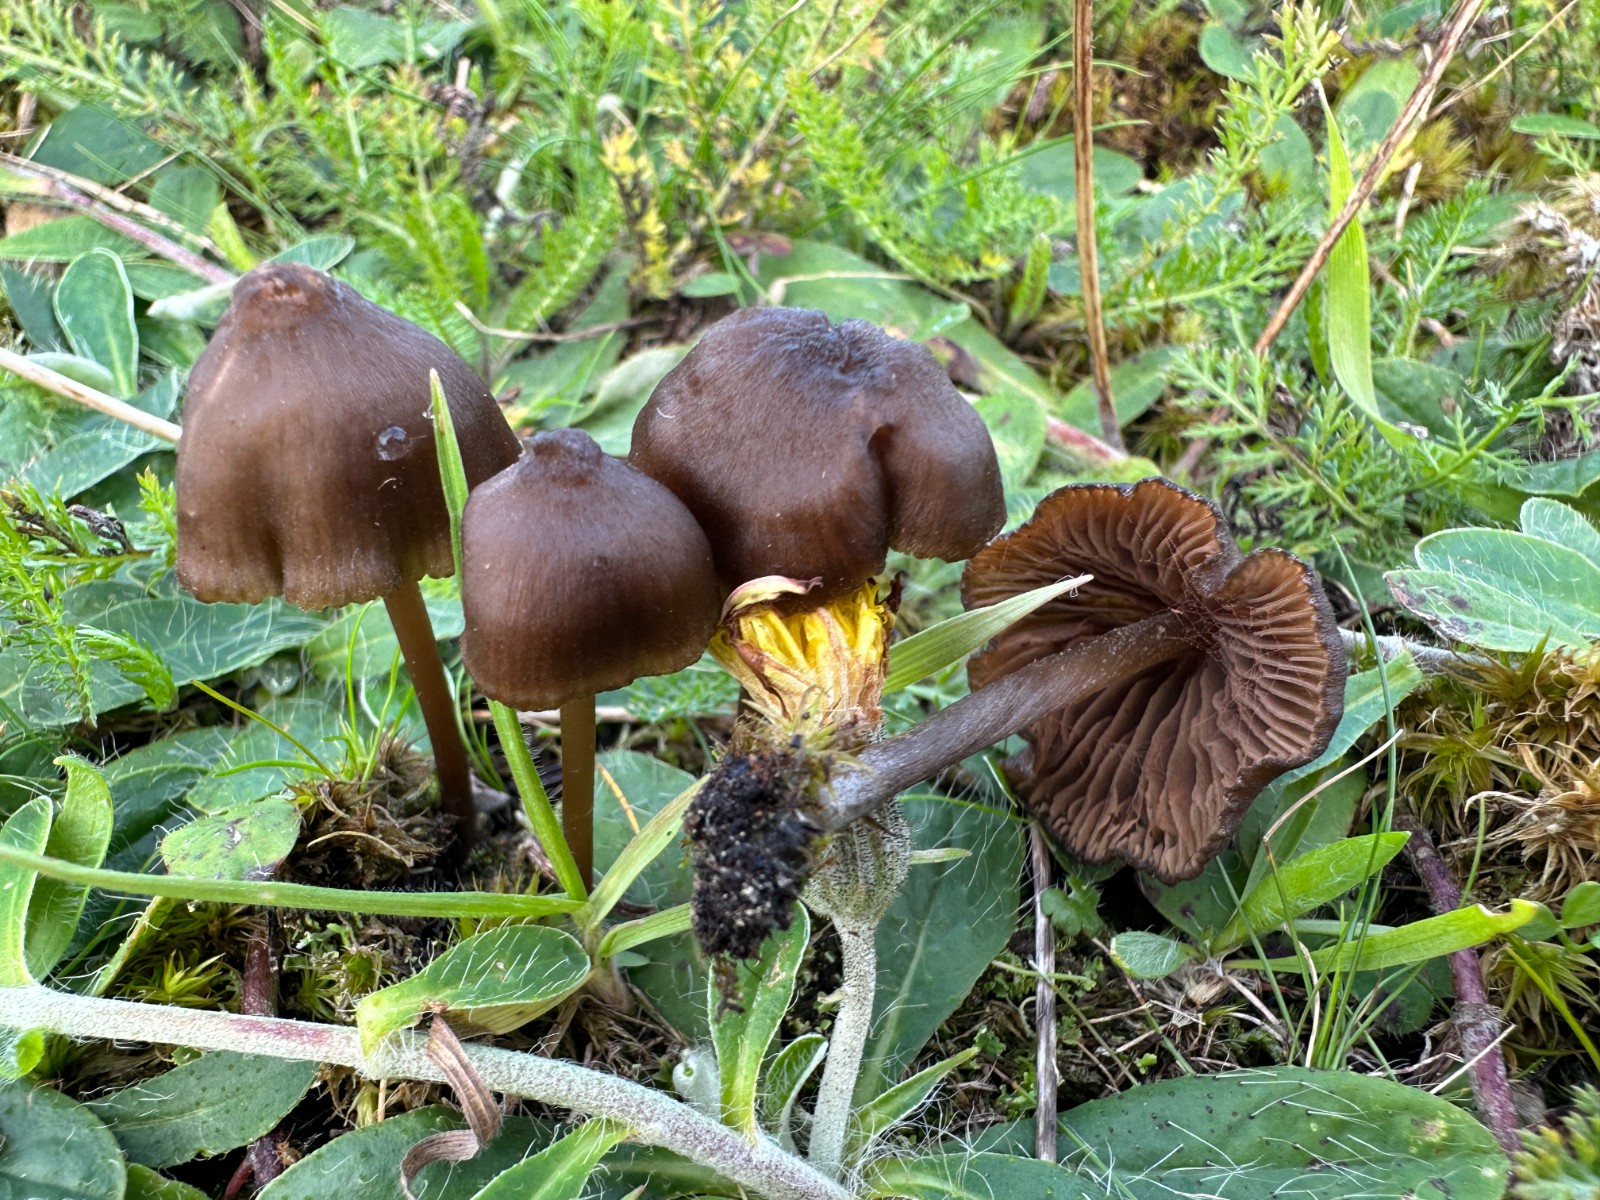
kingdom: Fungi
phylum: Basidiomycota
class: Agaricomycetes
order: Agaricales
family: Entolomataceae
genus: Entoloma
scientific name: Entoloma clandestinum
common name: tykbladet rødblad
